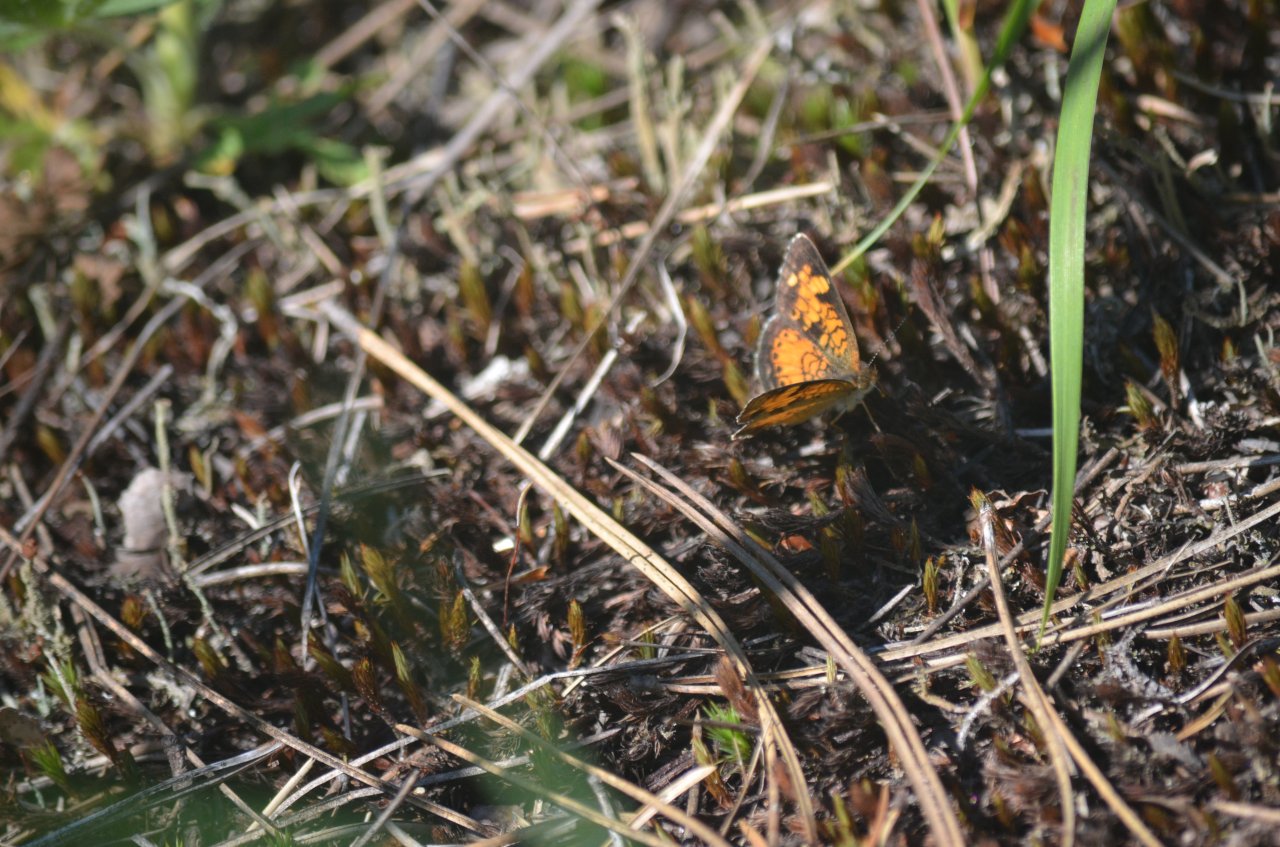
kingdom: Animalia
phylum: Arthropoda
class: Insecta
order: Lepidoptera
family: Nymphalidae
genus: Phyciodes
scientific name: Phyciodes tharos
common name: Northern Crescent
